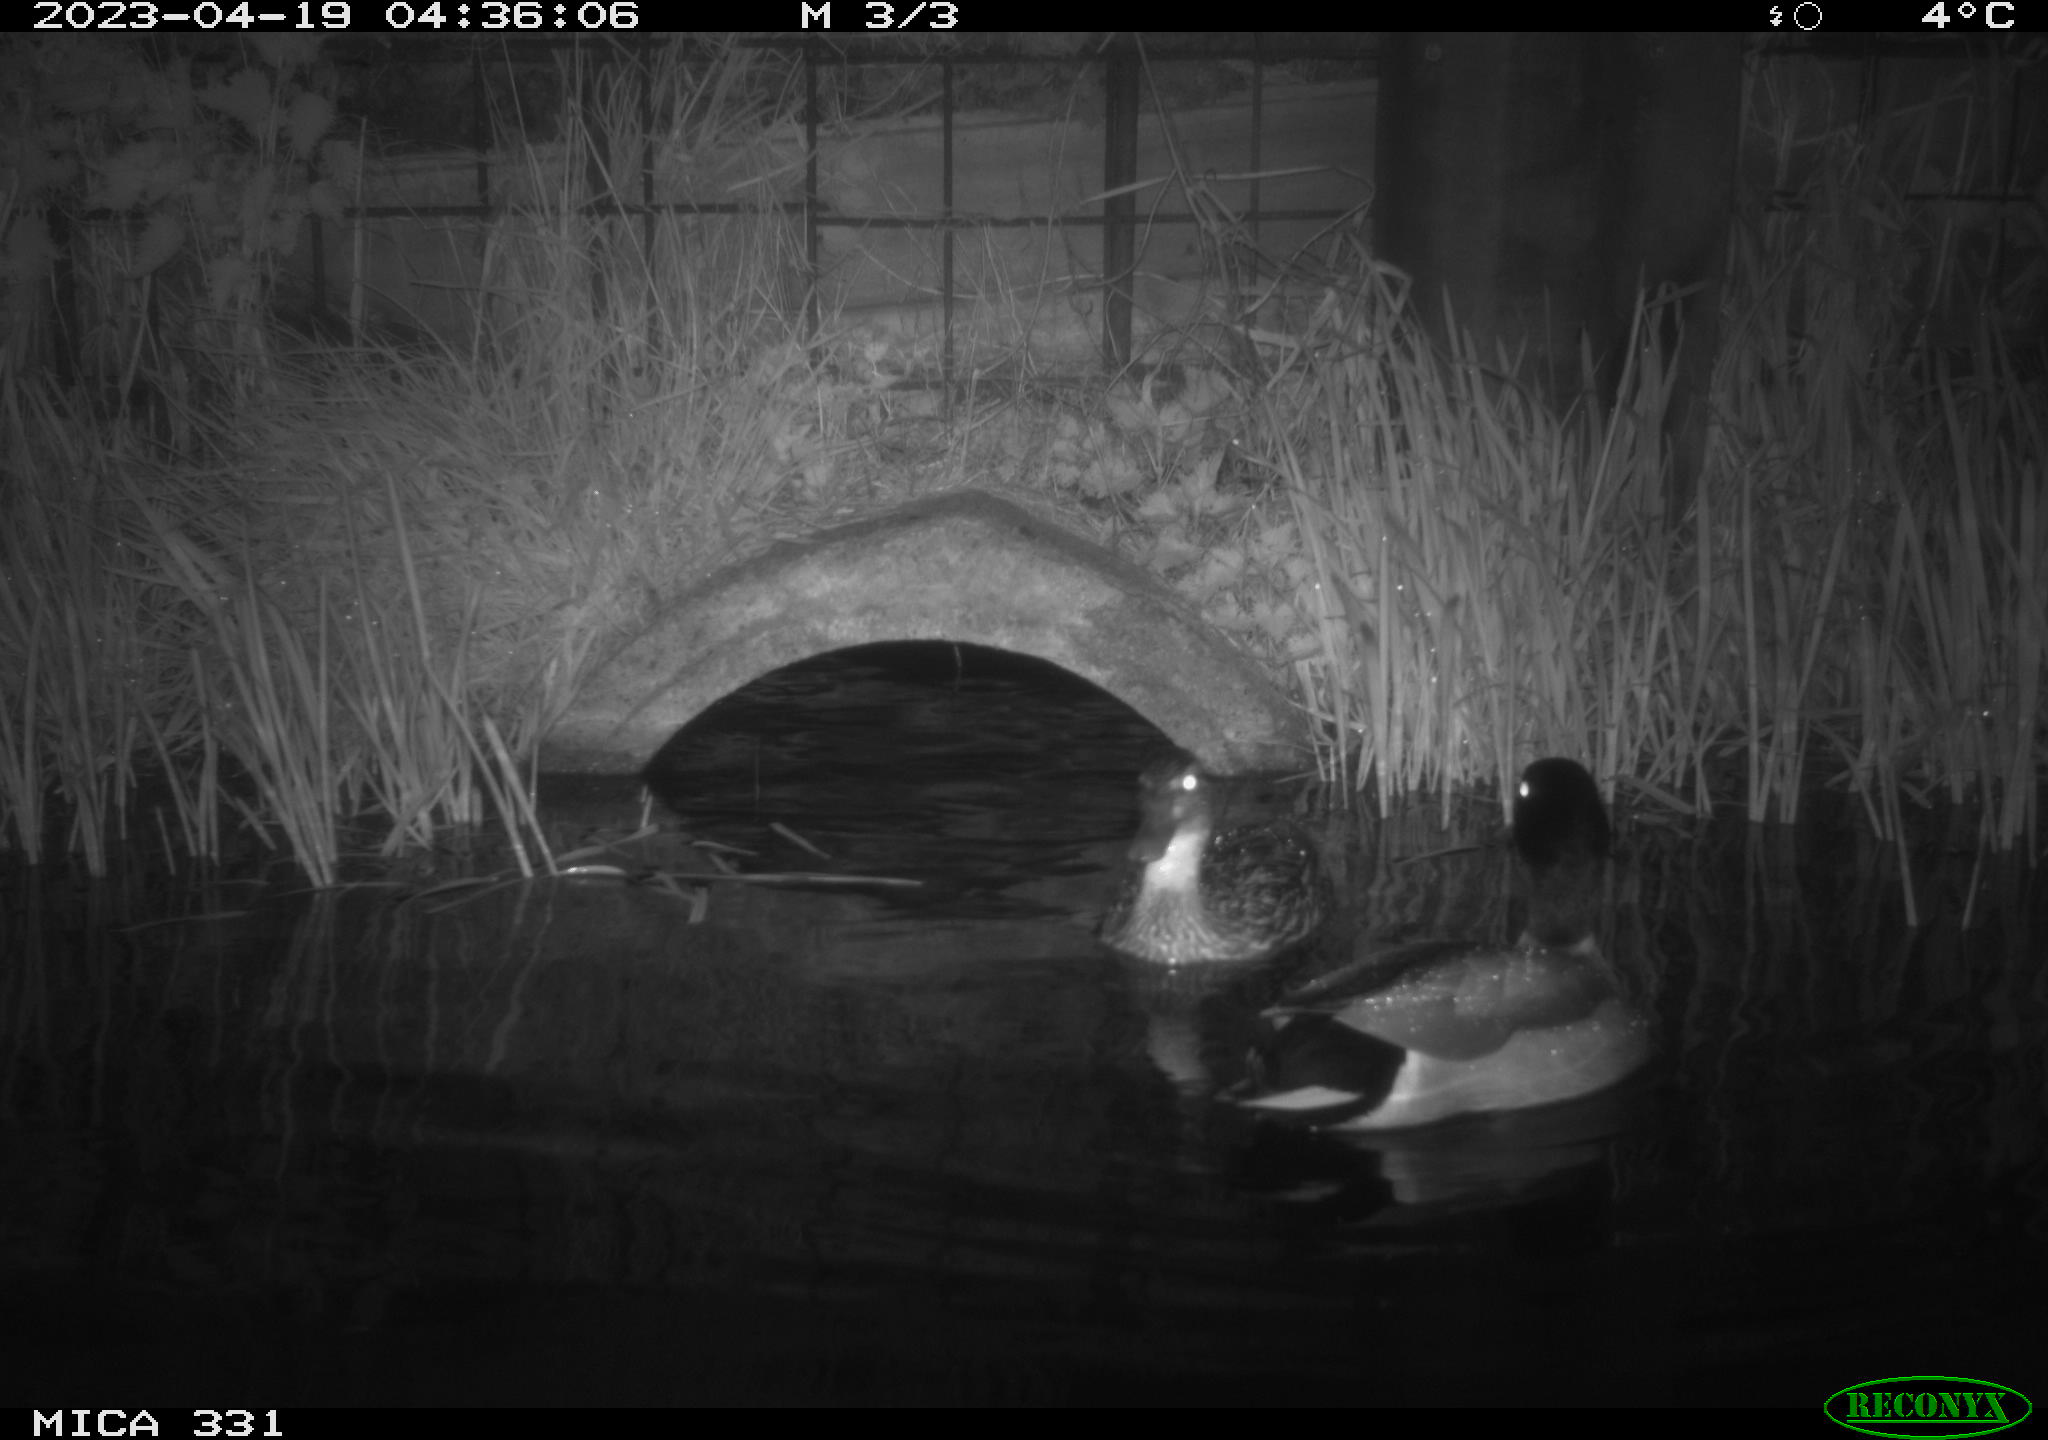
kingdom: Animalia
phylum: Chordata
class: Aves
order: Anseriformes
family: Anatidae
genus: Anas
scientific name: Anas platyrhynchos
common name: Mallard
